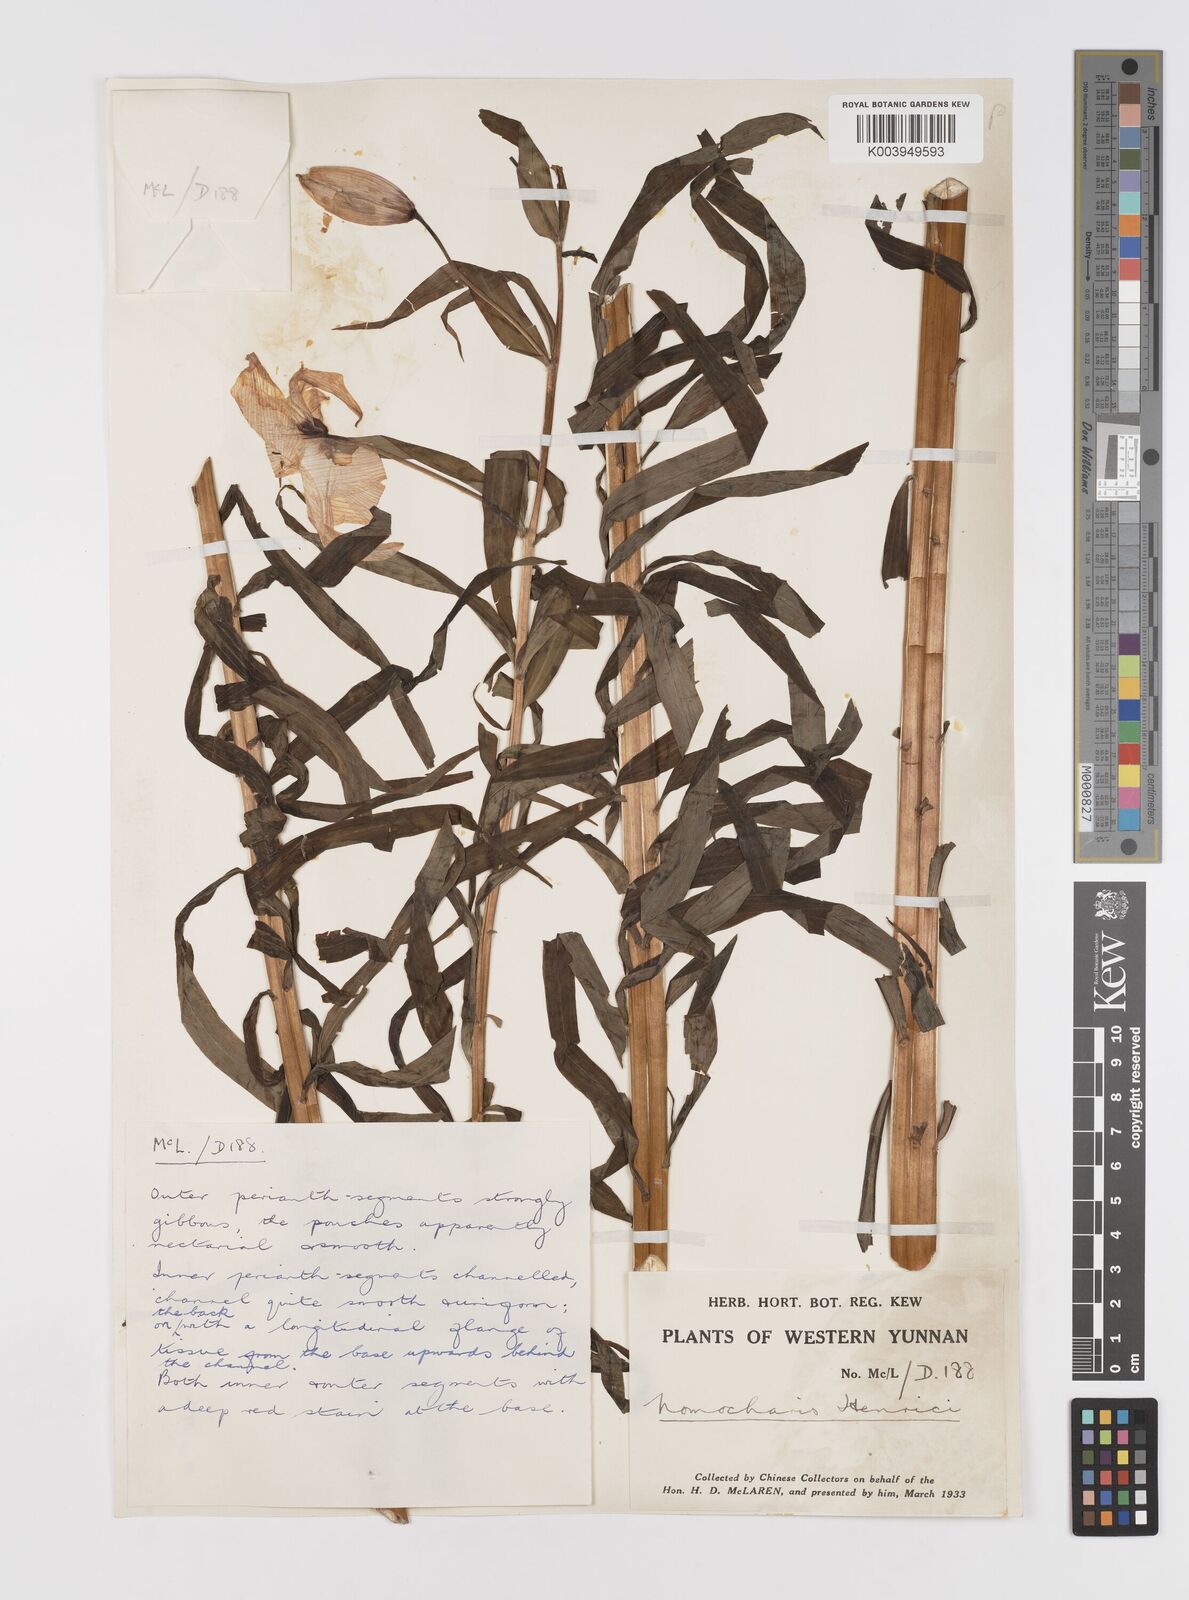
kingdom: Plantae
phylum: Tracheophyta
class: Liliopsida
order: Liliales
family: Liliaceae
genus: Lilium
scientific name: Lilium henrici
